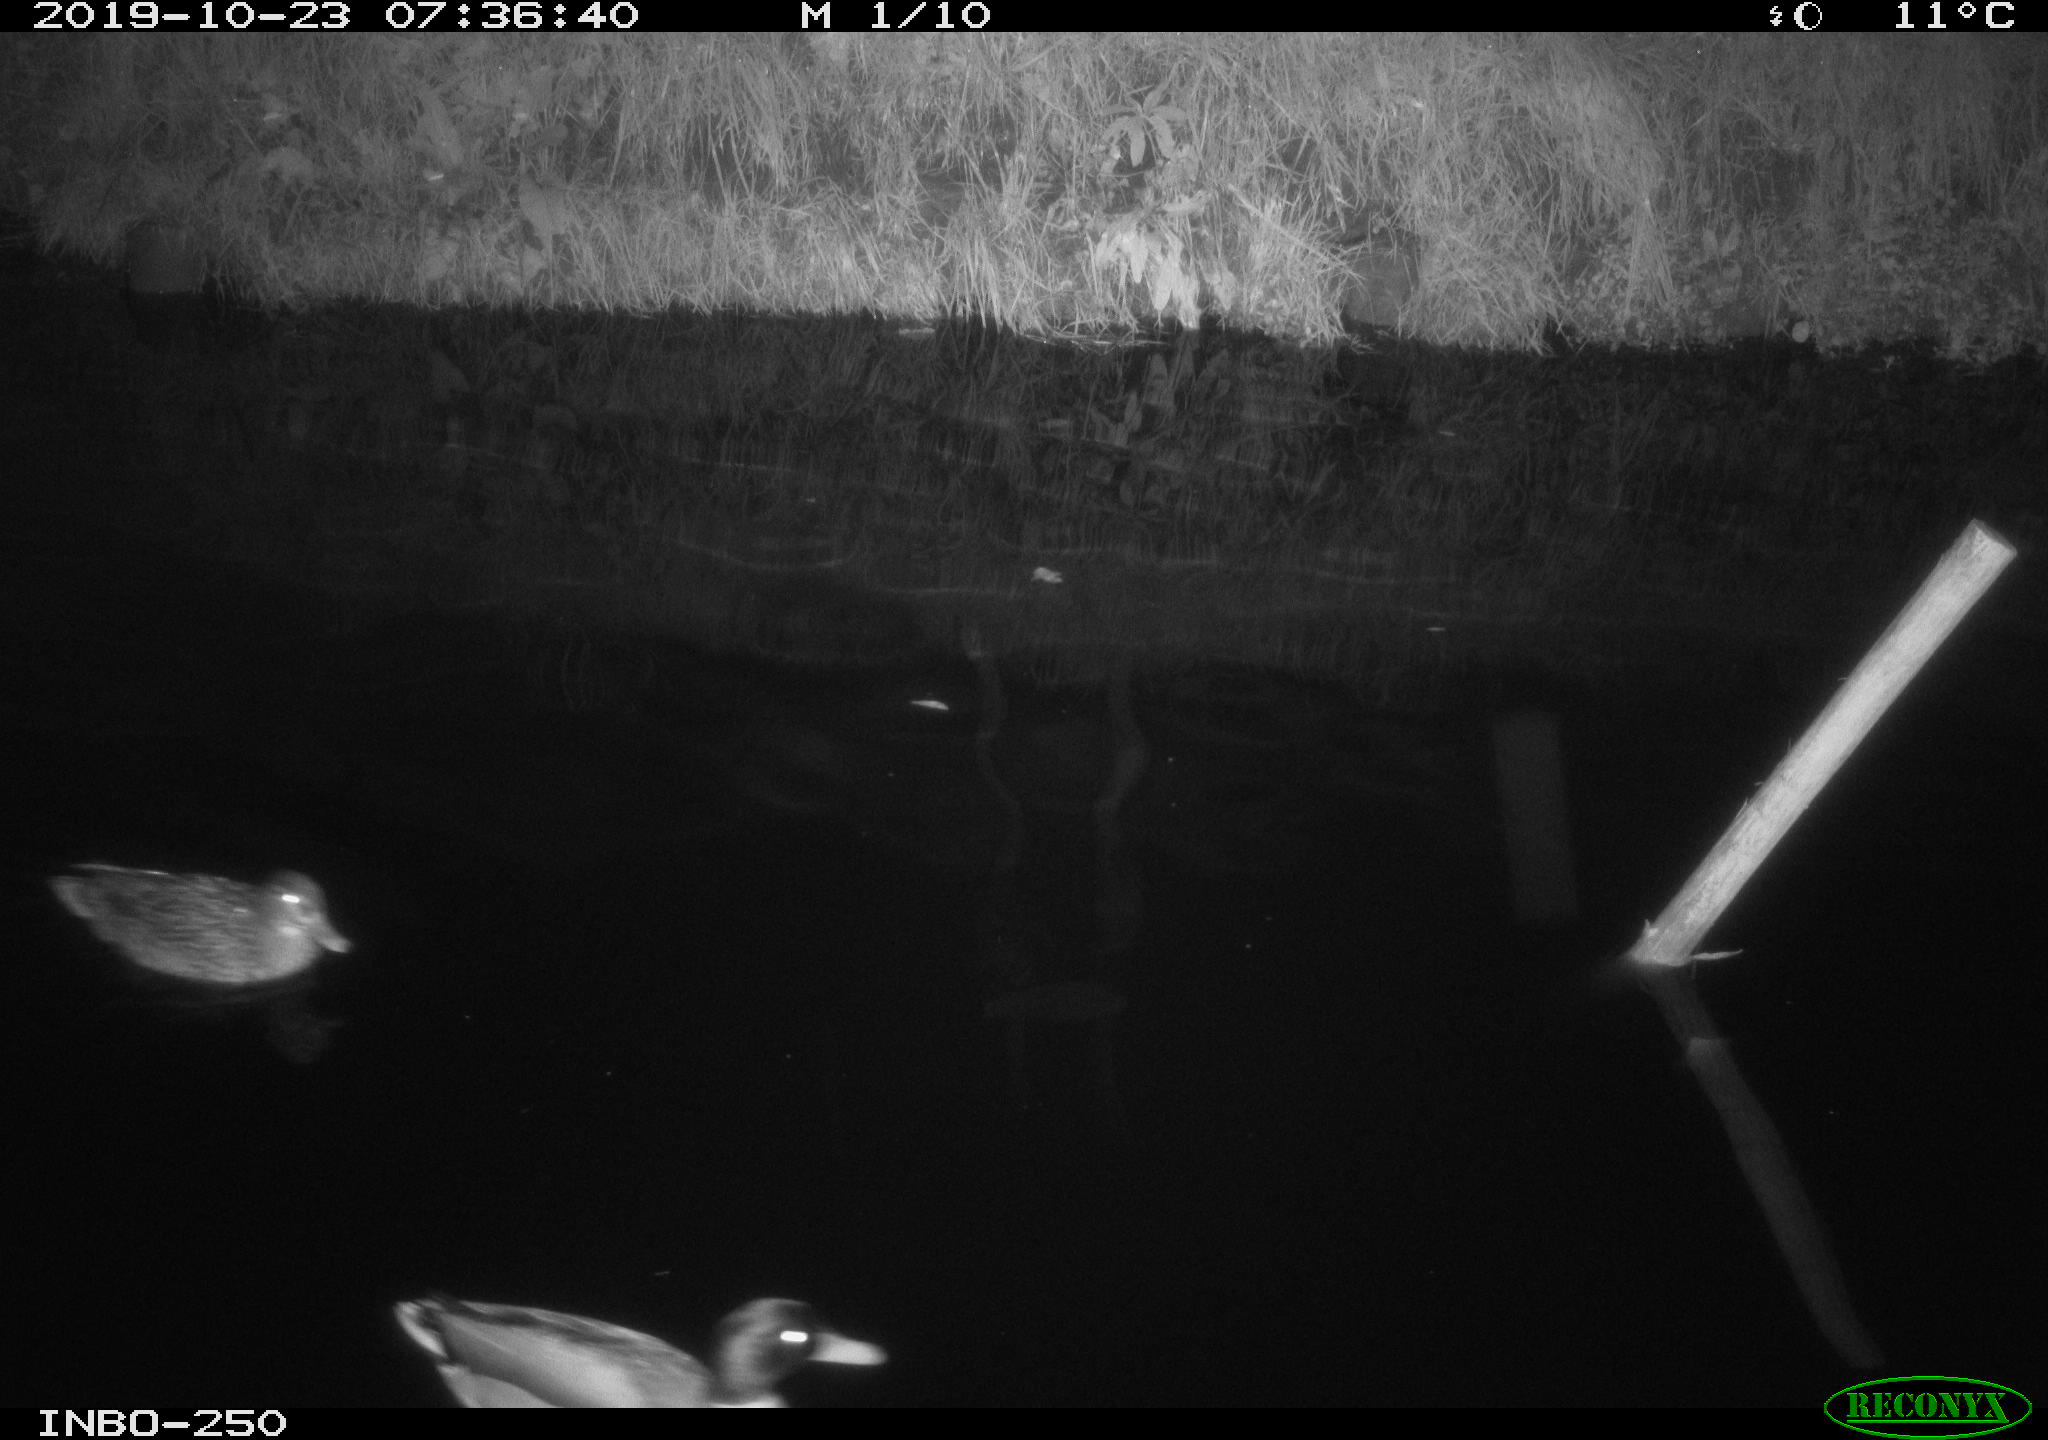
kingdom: Animalia
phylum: Chordata
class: Aves
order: Anseriformes
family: Anatidae
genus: Anas
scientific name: Anas platyrhynchos
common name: Mallard
